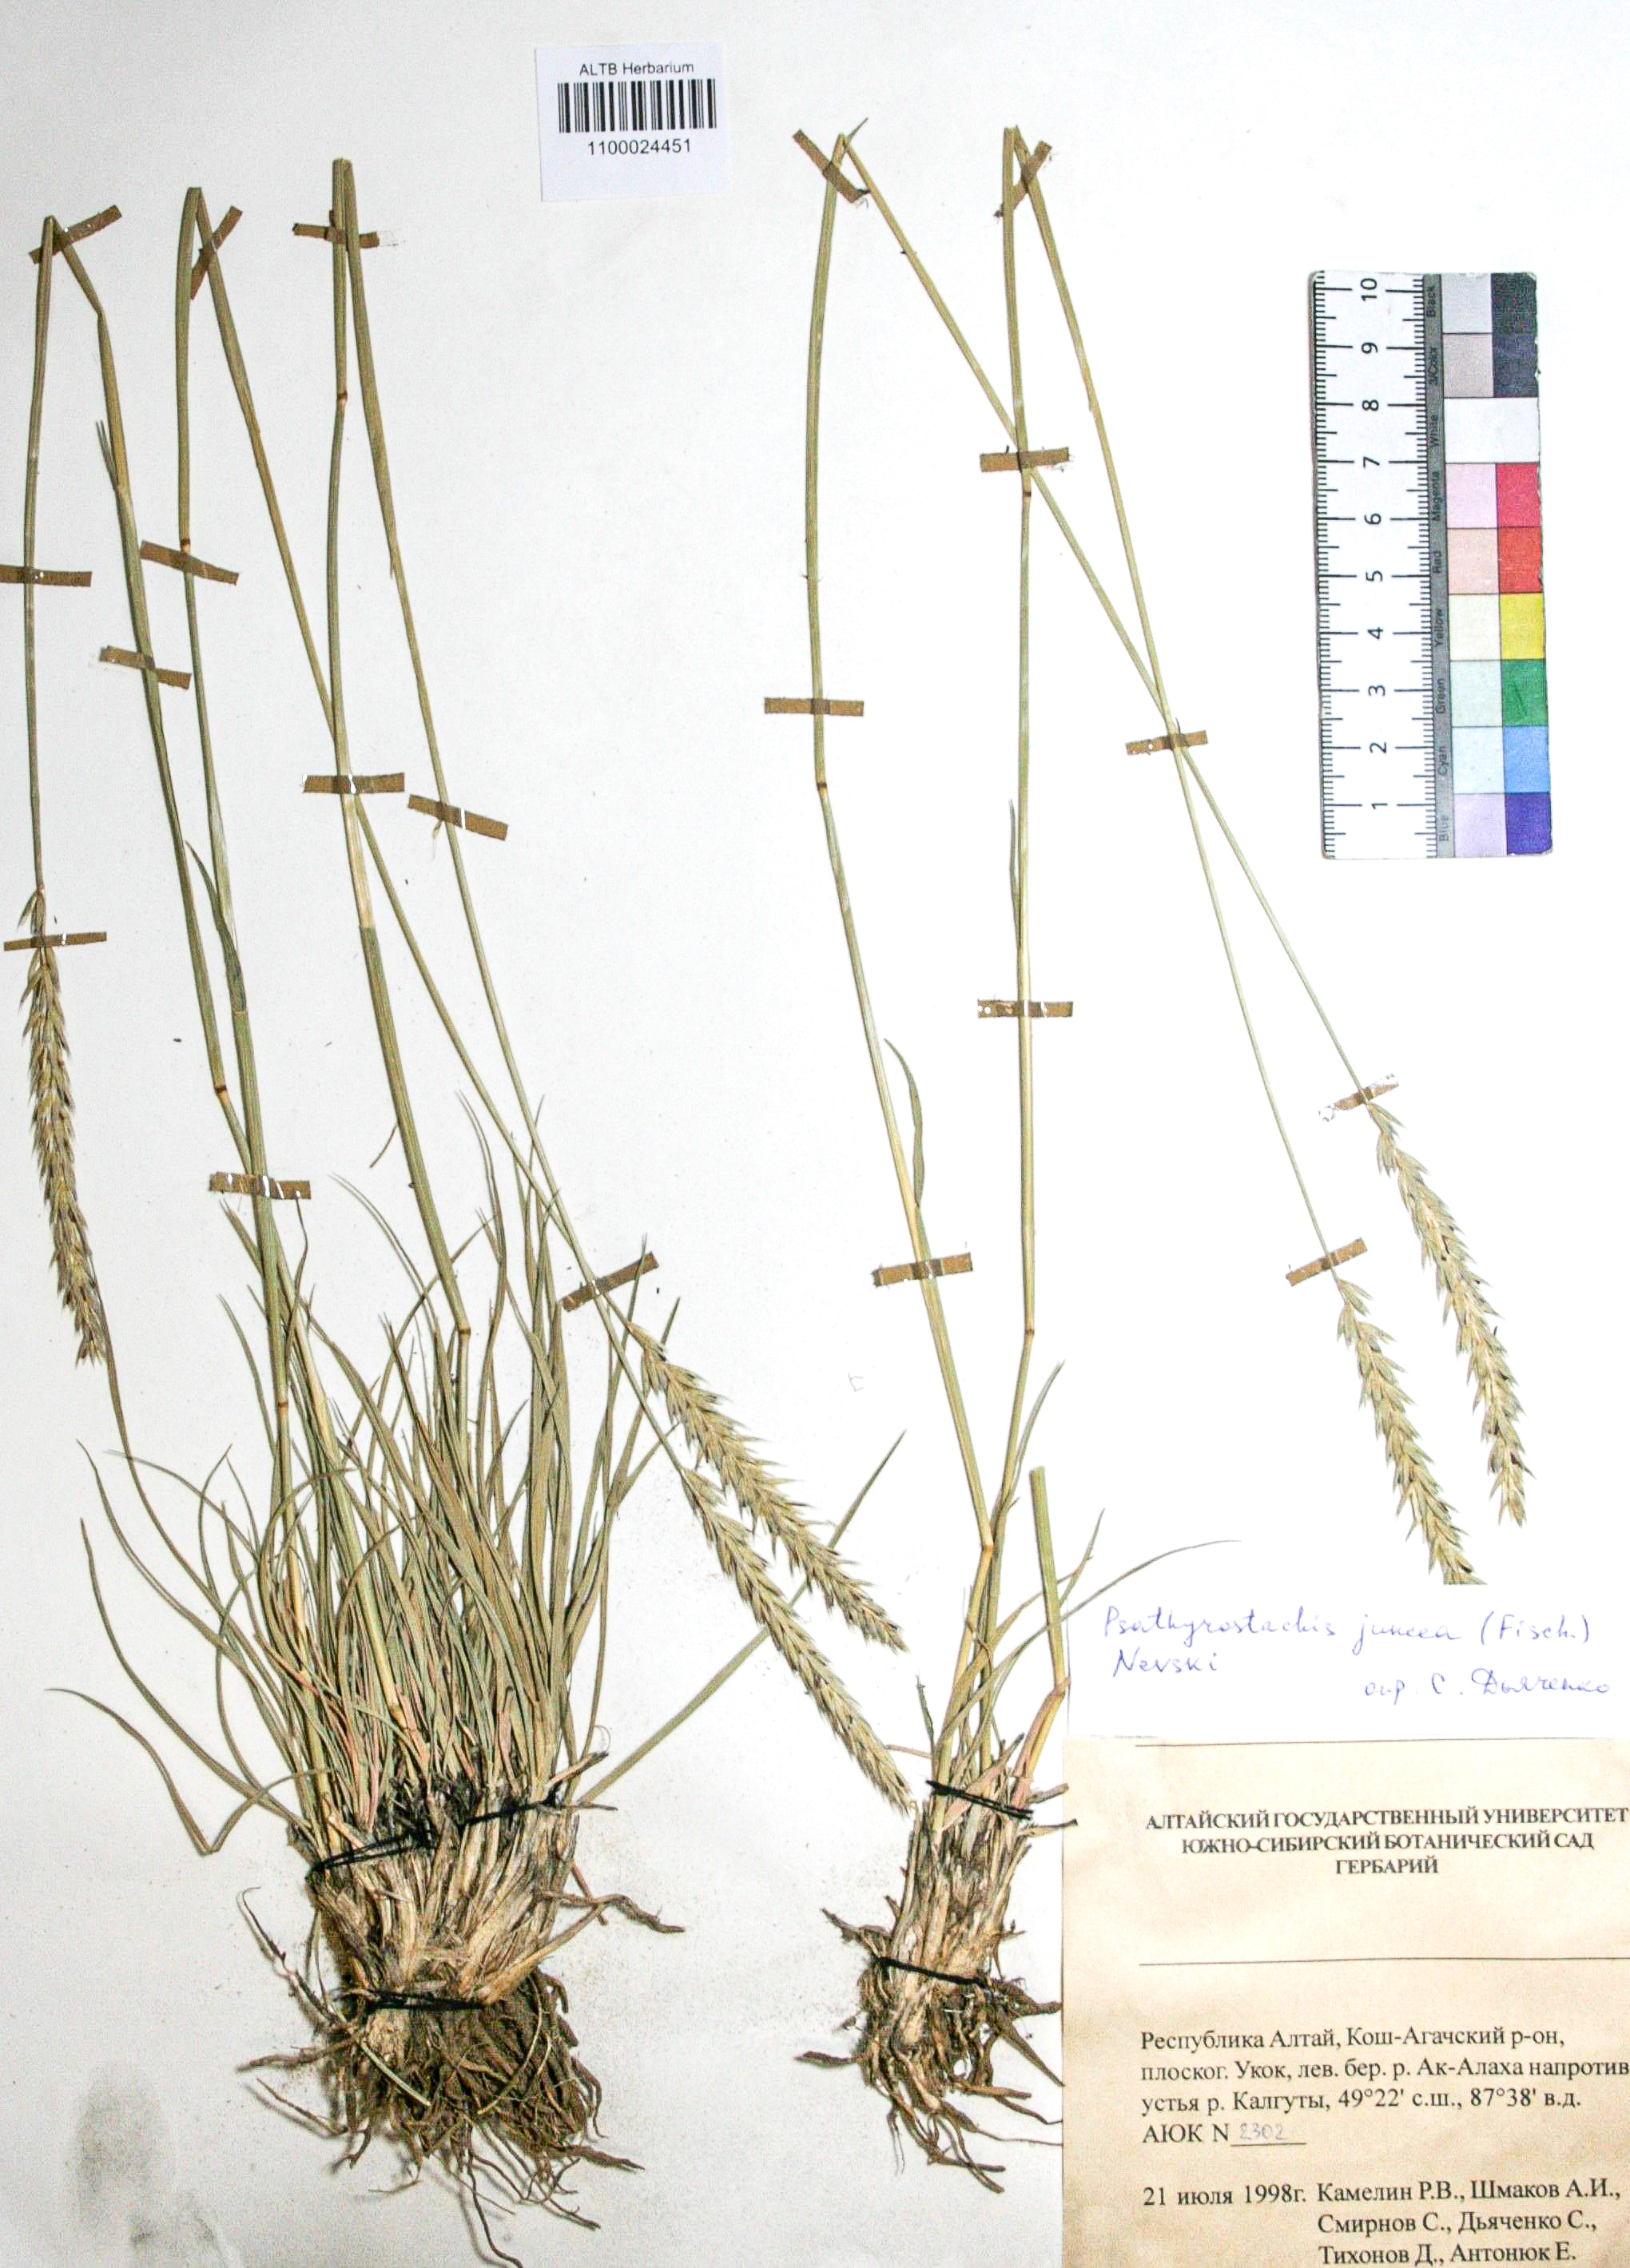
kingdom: Plantae
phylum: Tracheophyta
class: Liliopsida
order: Poales
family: Poaceae
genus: Psathyrostachys
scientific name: Psathyrostachys juncea
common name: Russian wildrye
